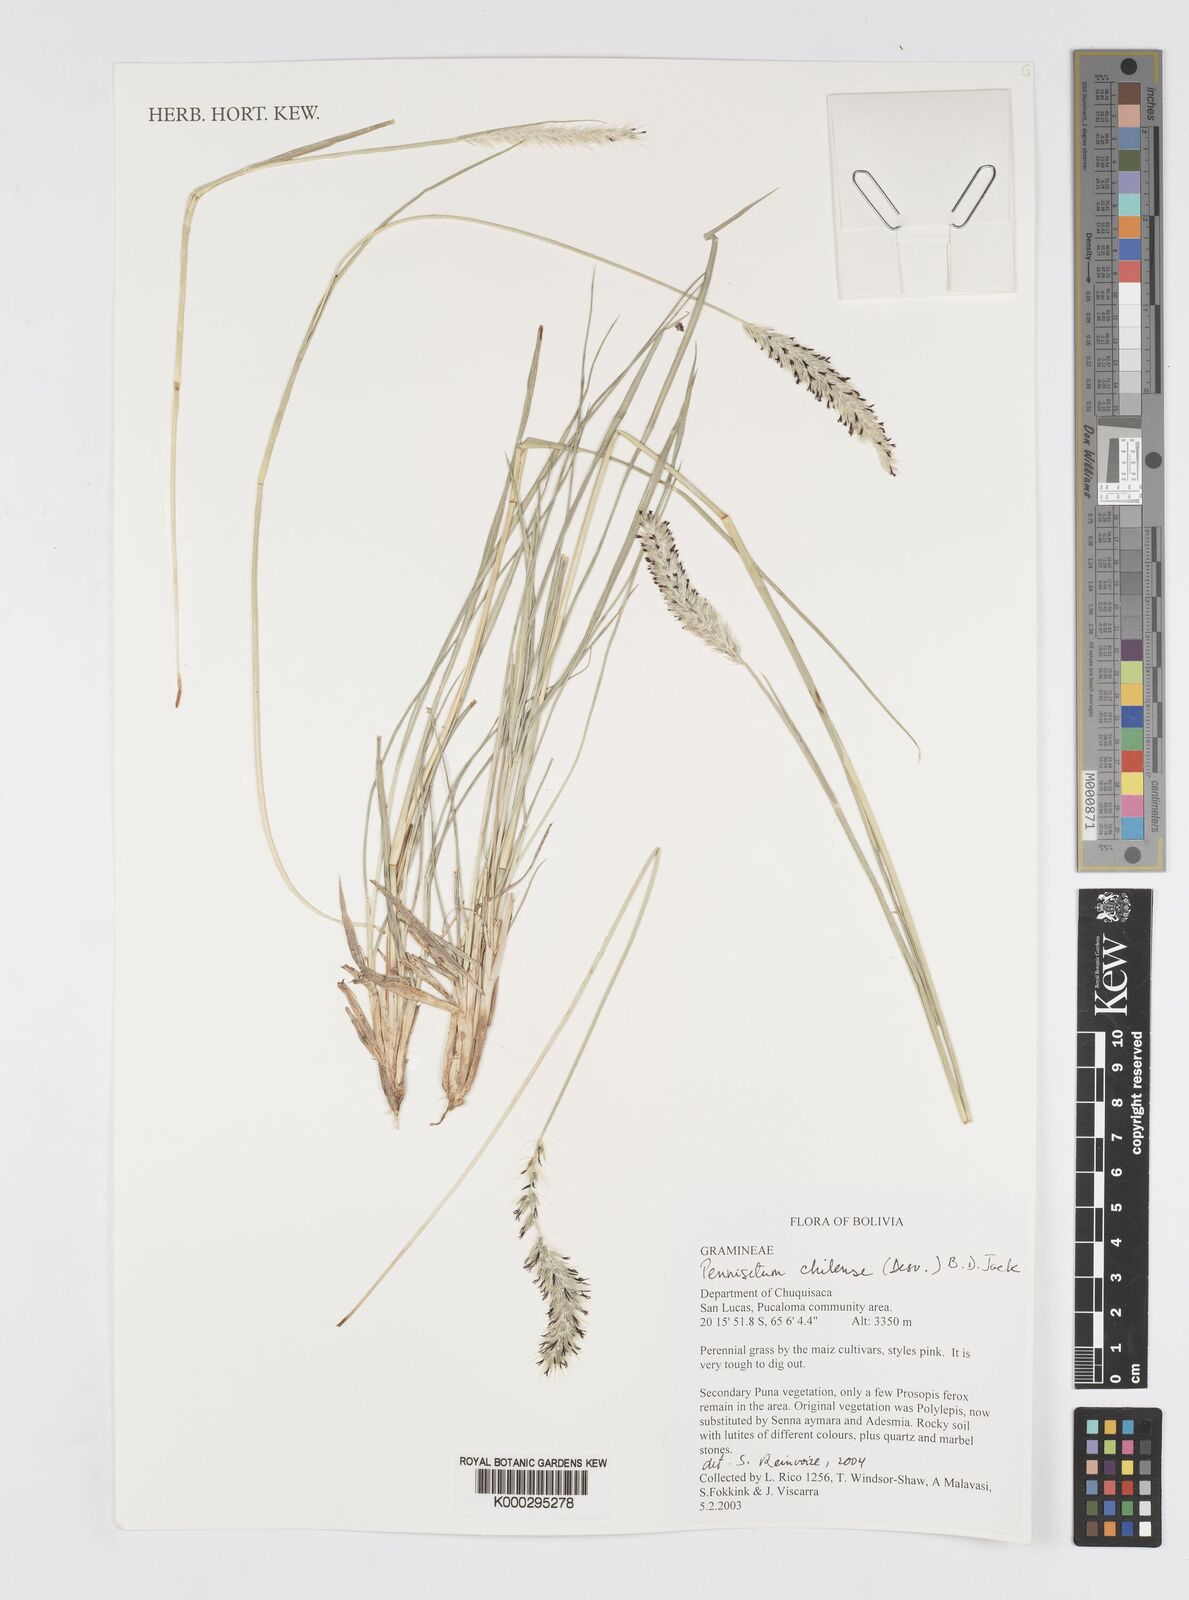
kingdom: Plantae
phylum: Tracheophyta
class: Liliopsida
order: Poales
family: Poaceae
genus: Cenchrus
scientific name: Cenchrus Pennisetum spec
